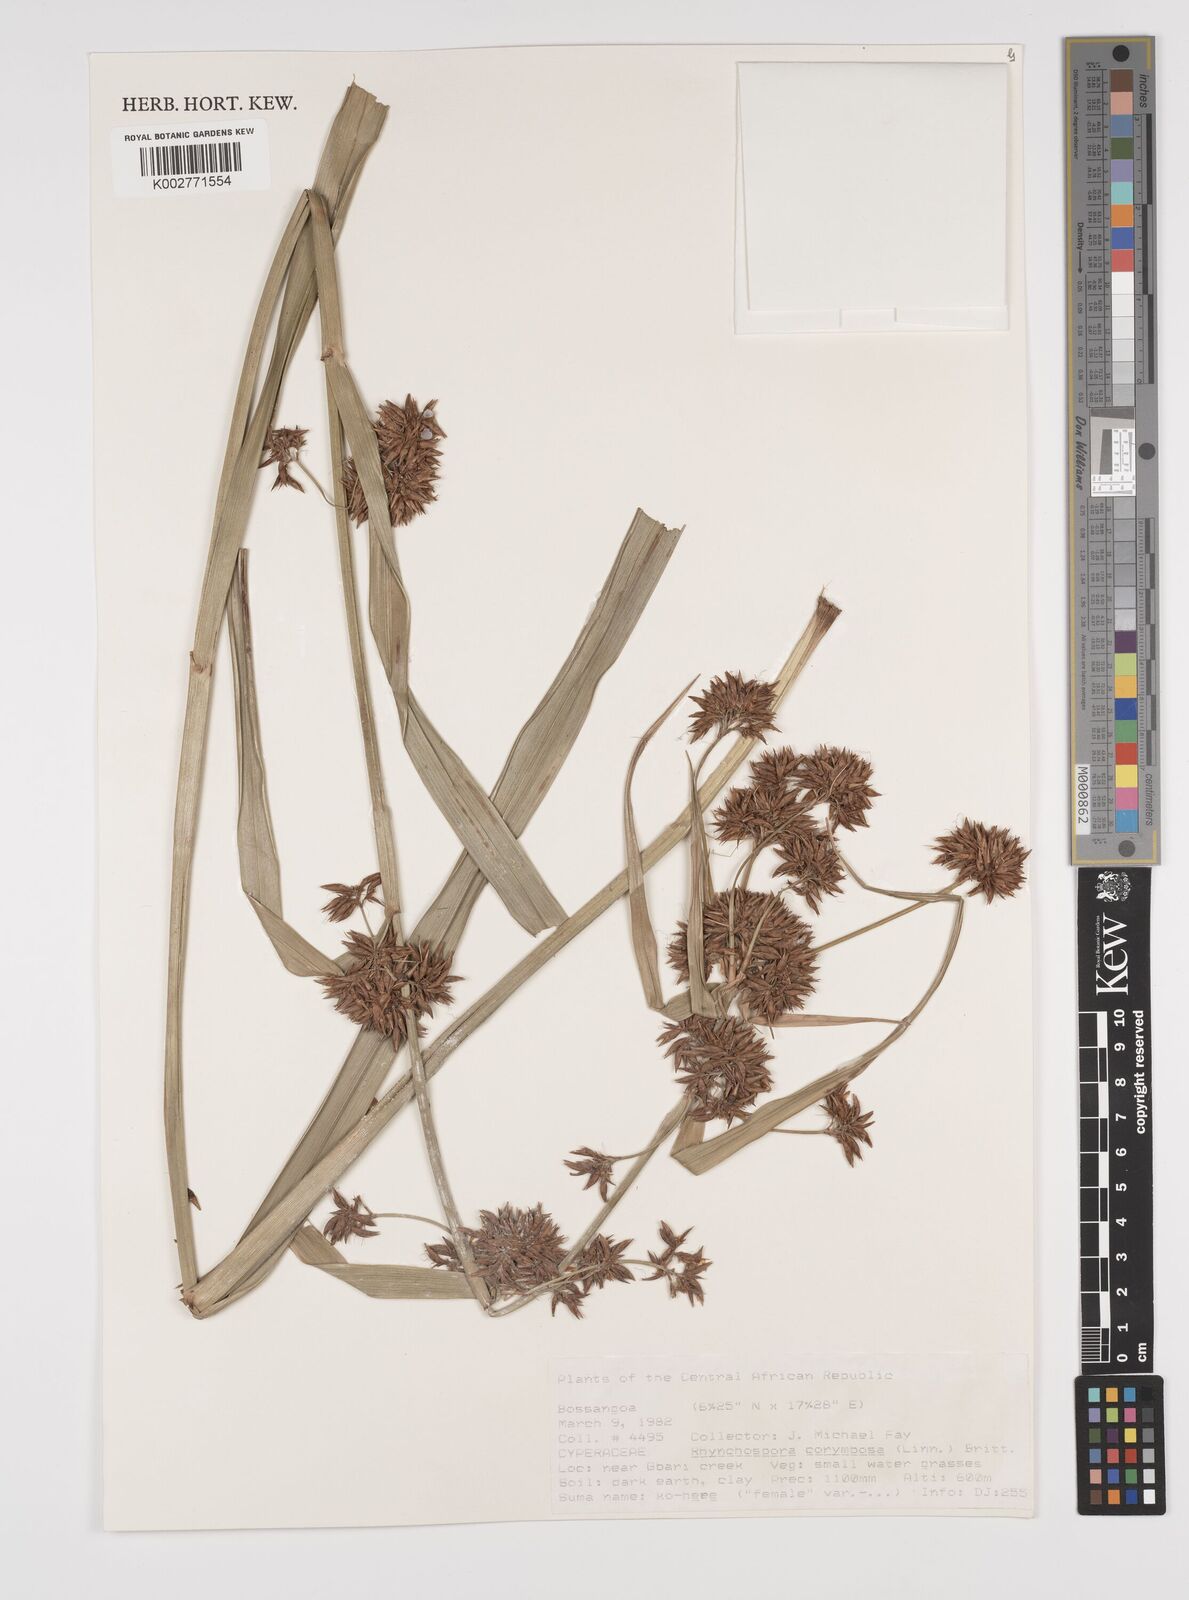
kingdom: Plantae
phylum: Tracheophyta
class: Liliopsida
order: Poales
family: Cyperaceae
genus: Rhynchospora
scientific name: Rhynchospora corymbosa
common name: Golden beak sedge
